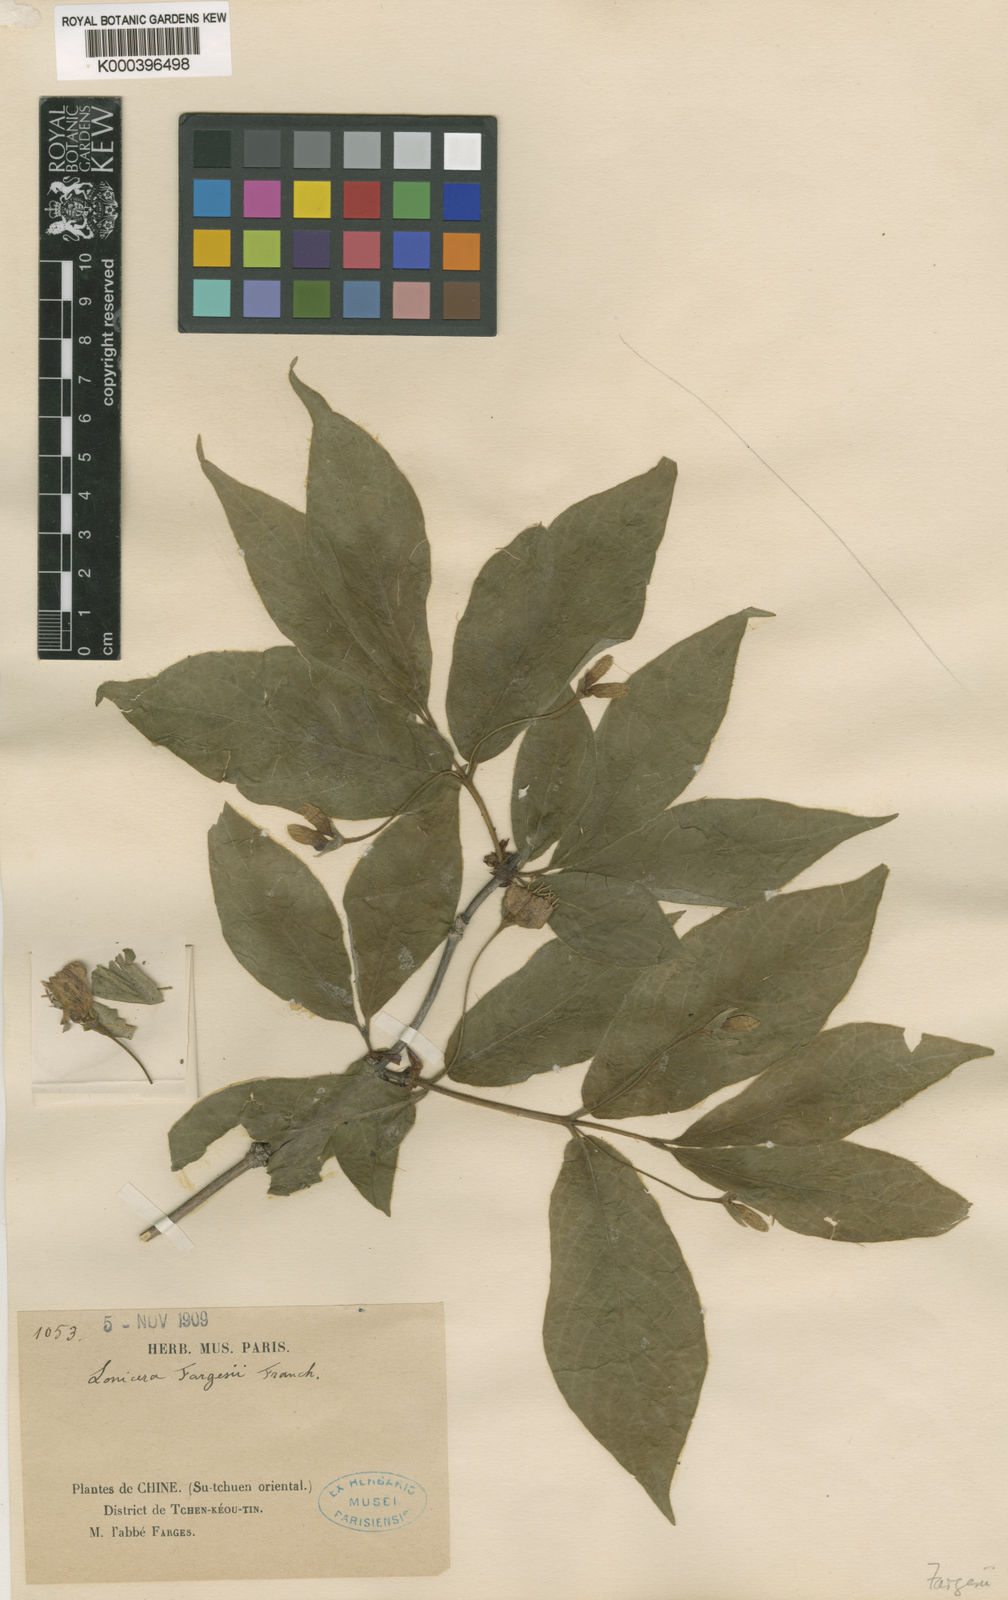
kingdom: Plantae
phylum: Tracheophyta
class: Magnoliopsida
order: Dipsacales
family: Caprifoliaceae
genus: Lonicera
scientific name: Lonicera fargesii
